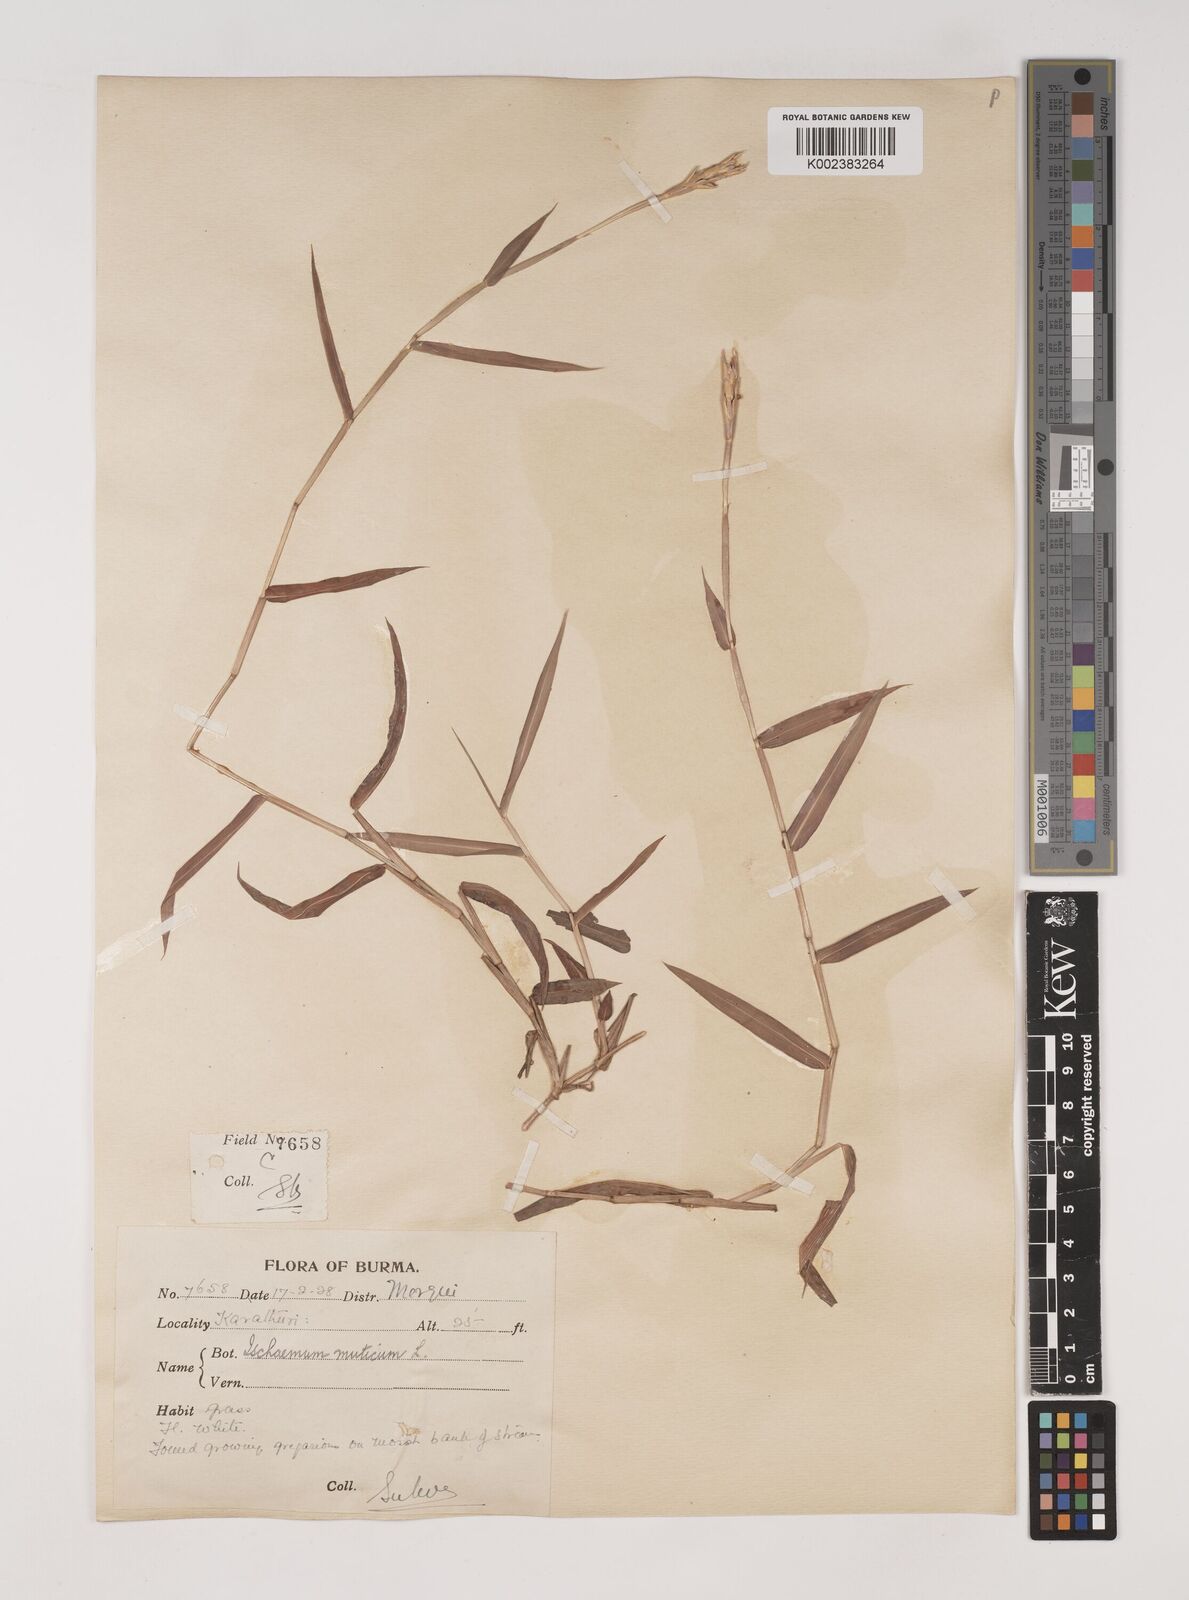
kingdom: Plantae
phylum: Tracheophyta
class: Liliopsida
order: Poales
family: Poaceae
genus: Ischaemum
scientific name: Ischaemum muticum
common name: Drought grass
